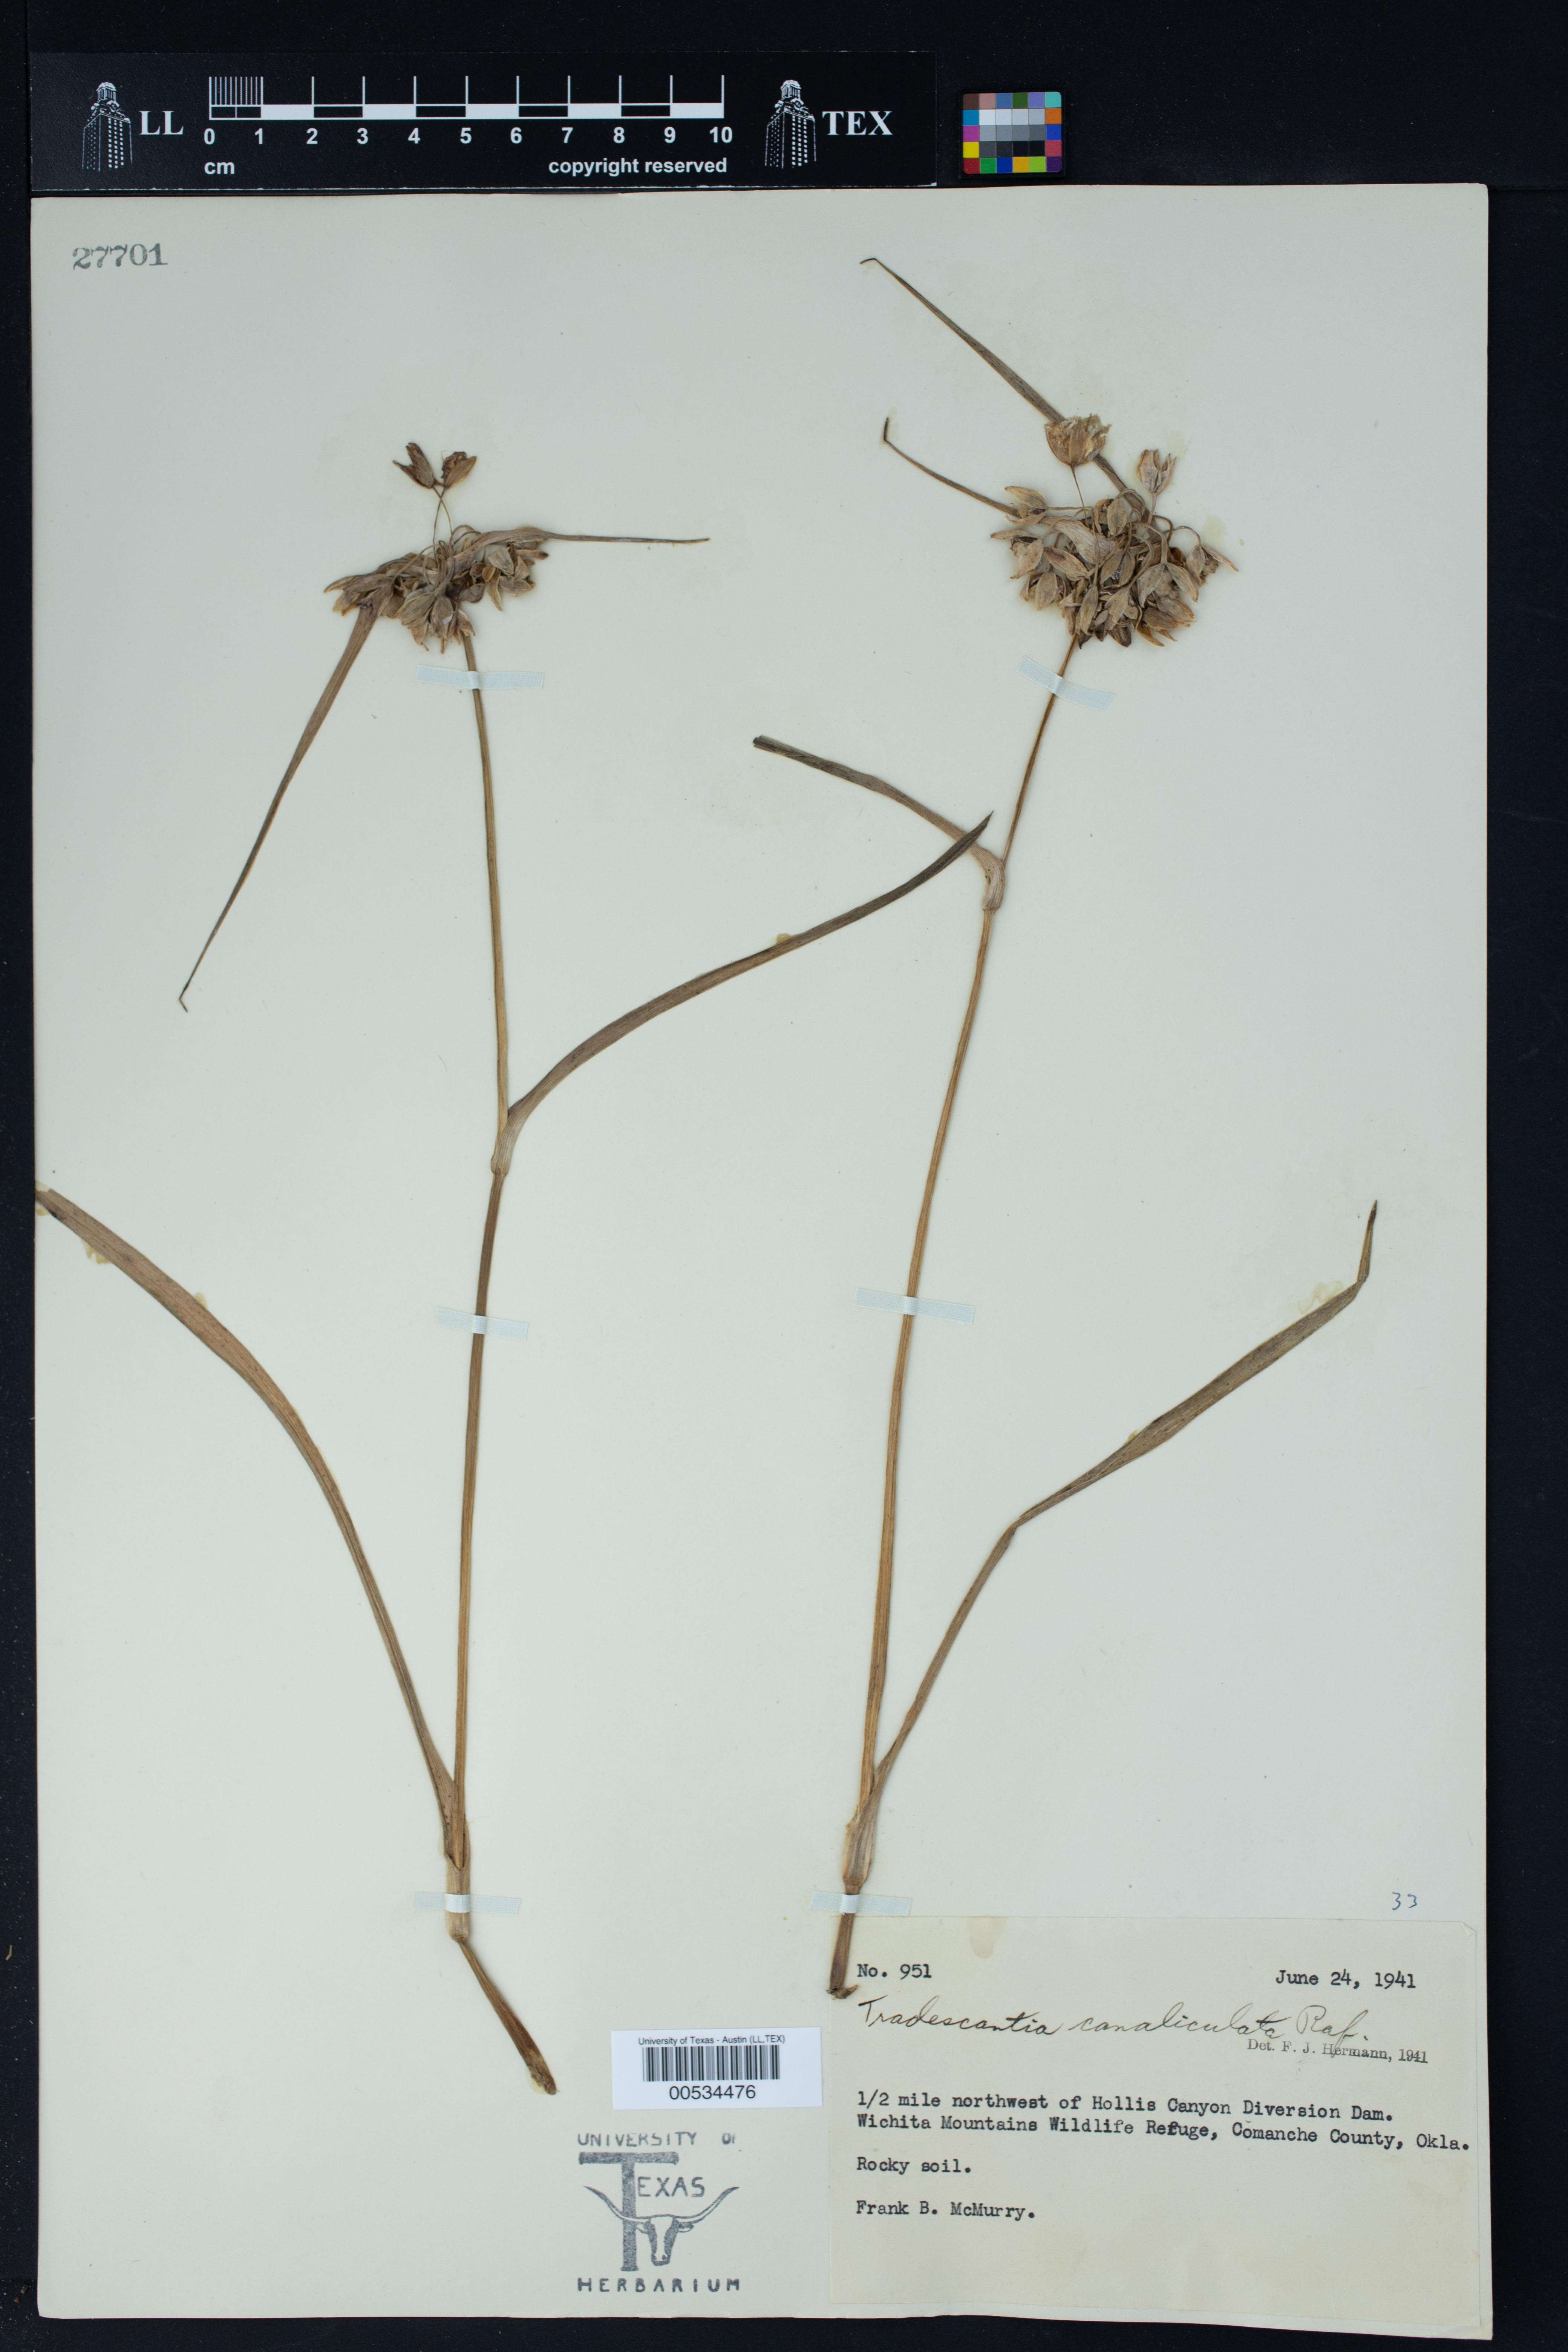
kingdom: Plantae
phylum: Tracheophyta
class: Liliopsida
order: Commelinales
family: Commelinaceae
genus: Tradescantia
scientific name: Tradescantia ohiensis
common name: Ohio spiderwort
